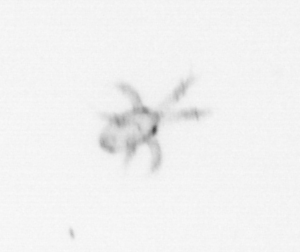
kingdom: Animalia
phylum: Arthropoda
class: Copepoda
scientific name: Copepoda
